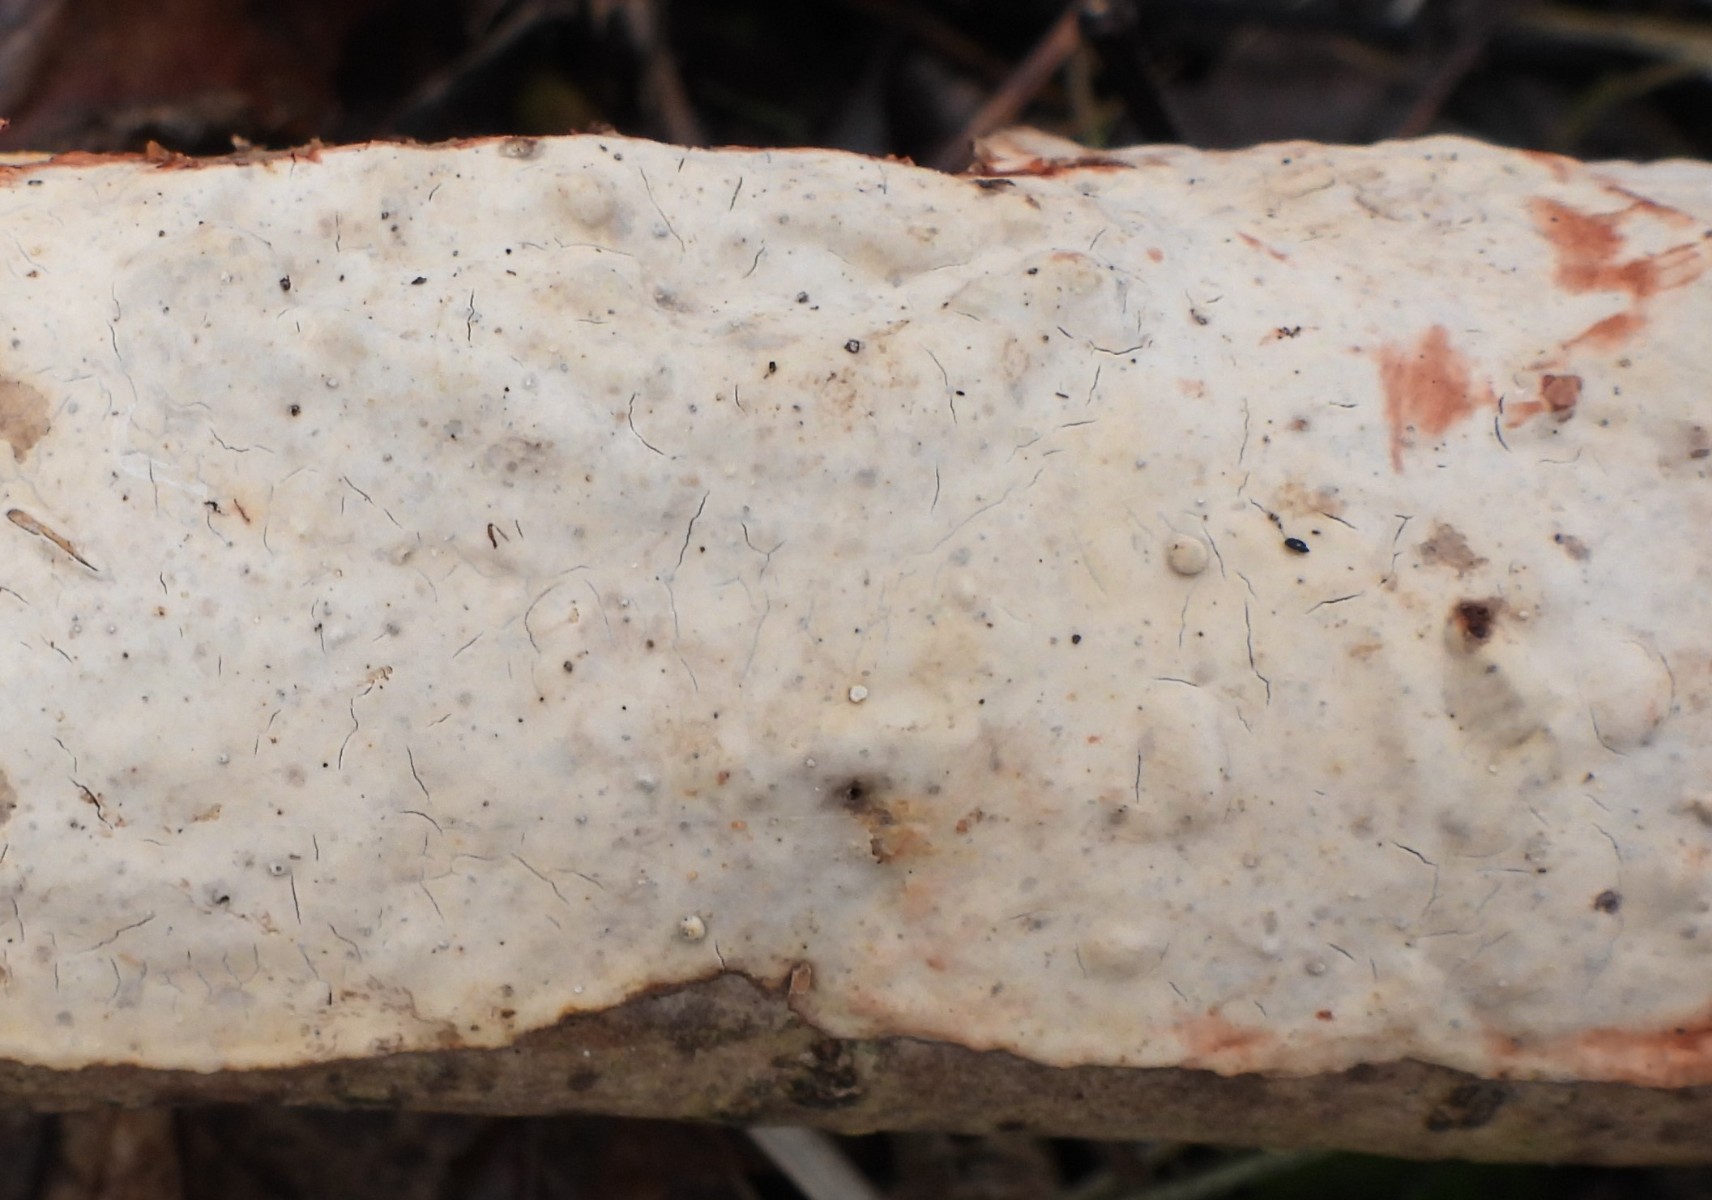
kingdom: Fungi
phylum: Basidiomycota
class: Agaricomycetes
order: Russulales
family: Stereaceae
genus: Stereum
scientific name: Stereum rugosum
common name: rynket lædersvamp
